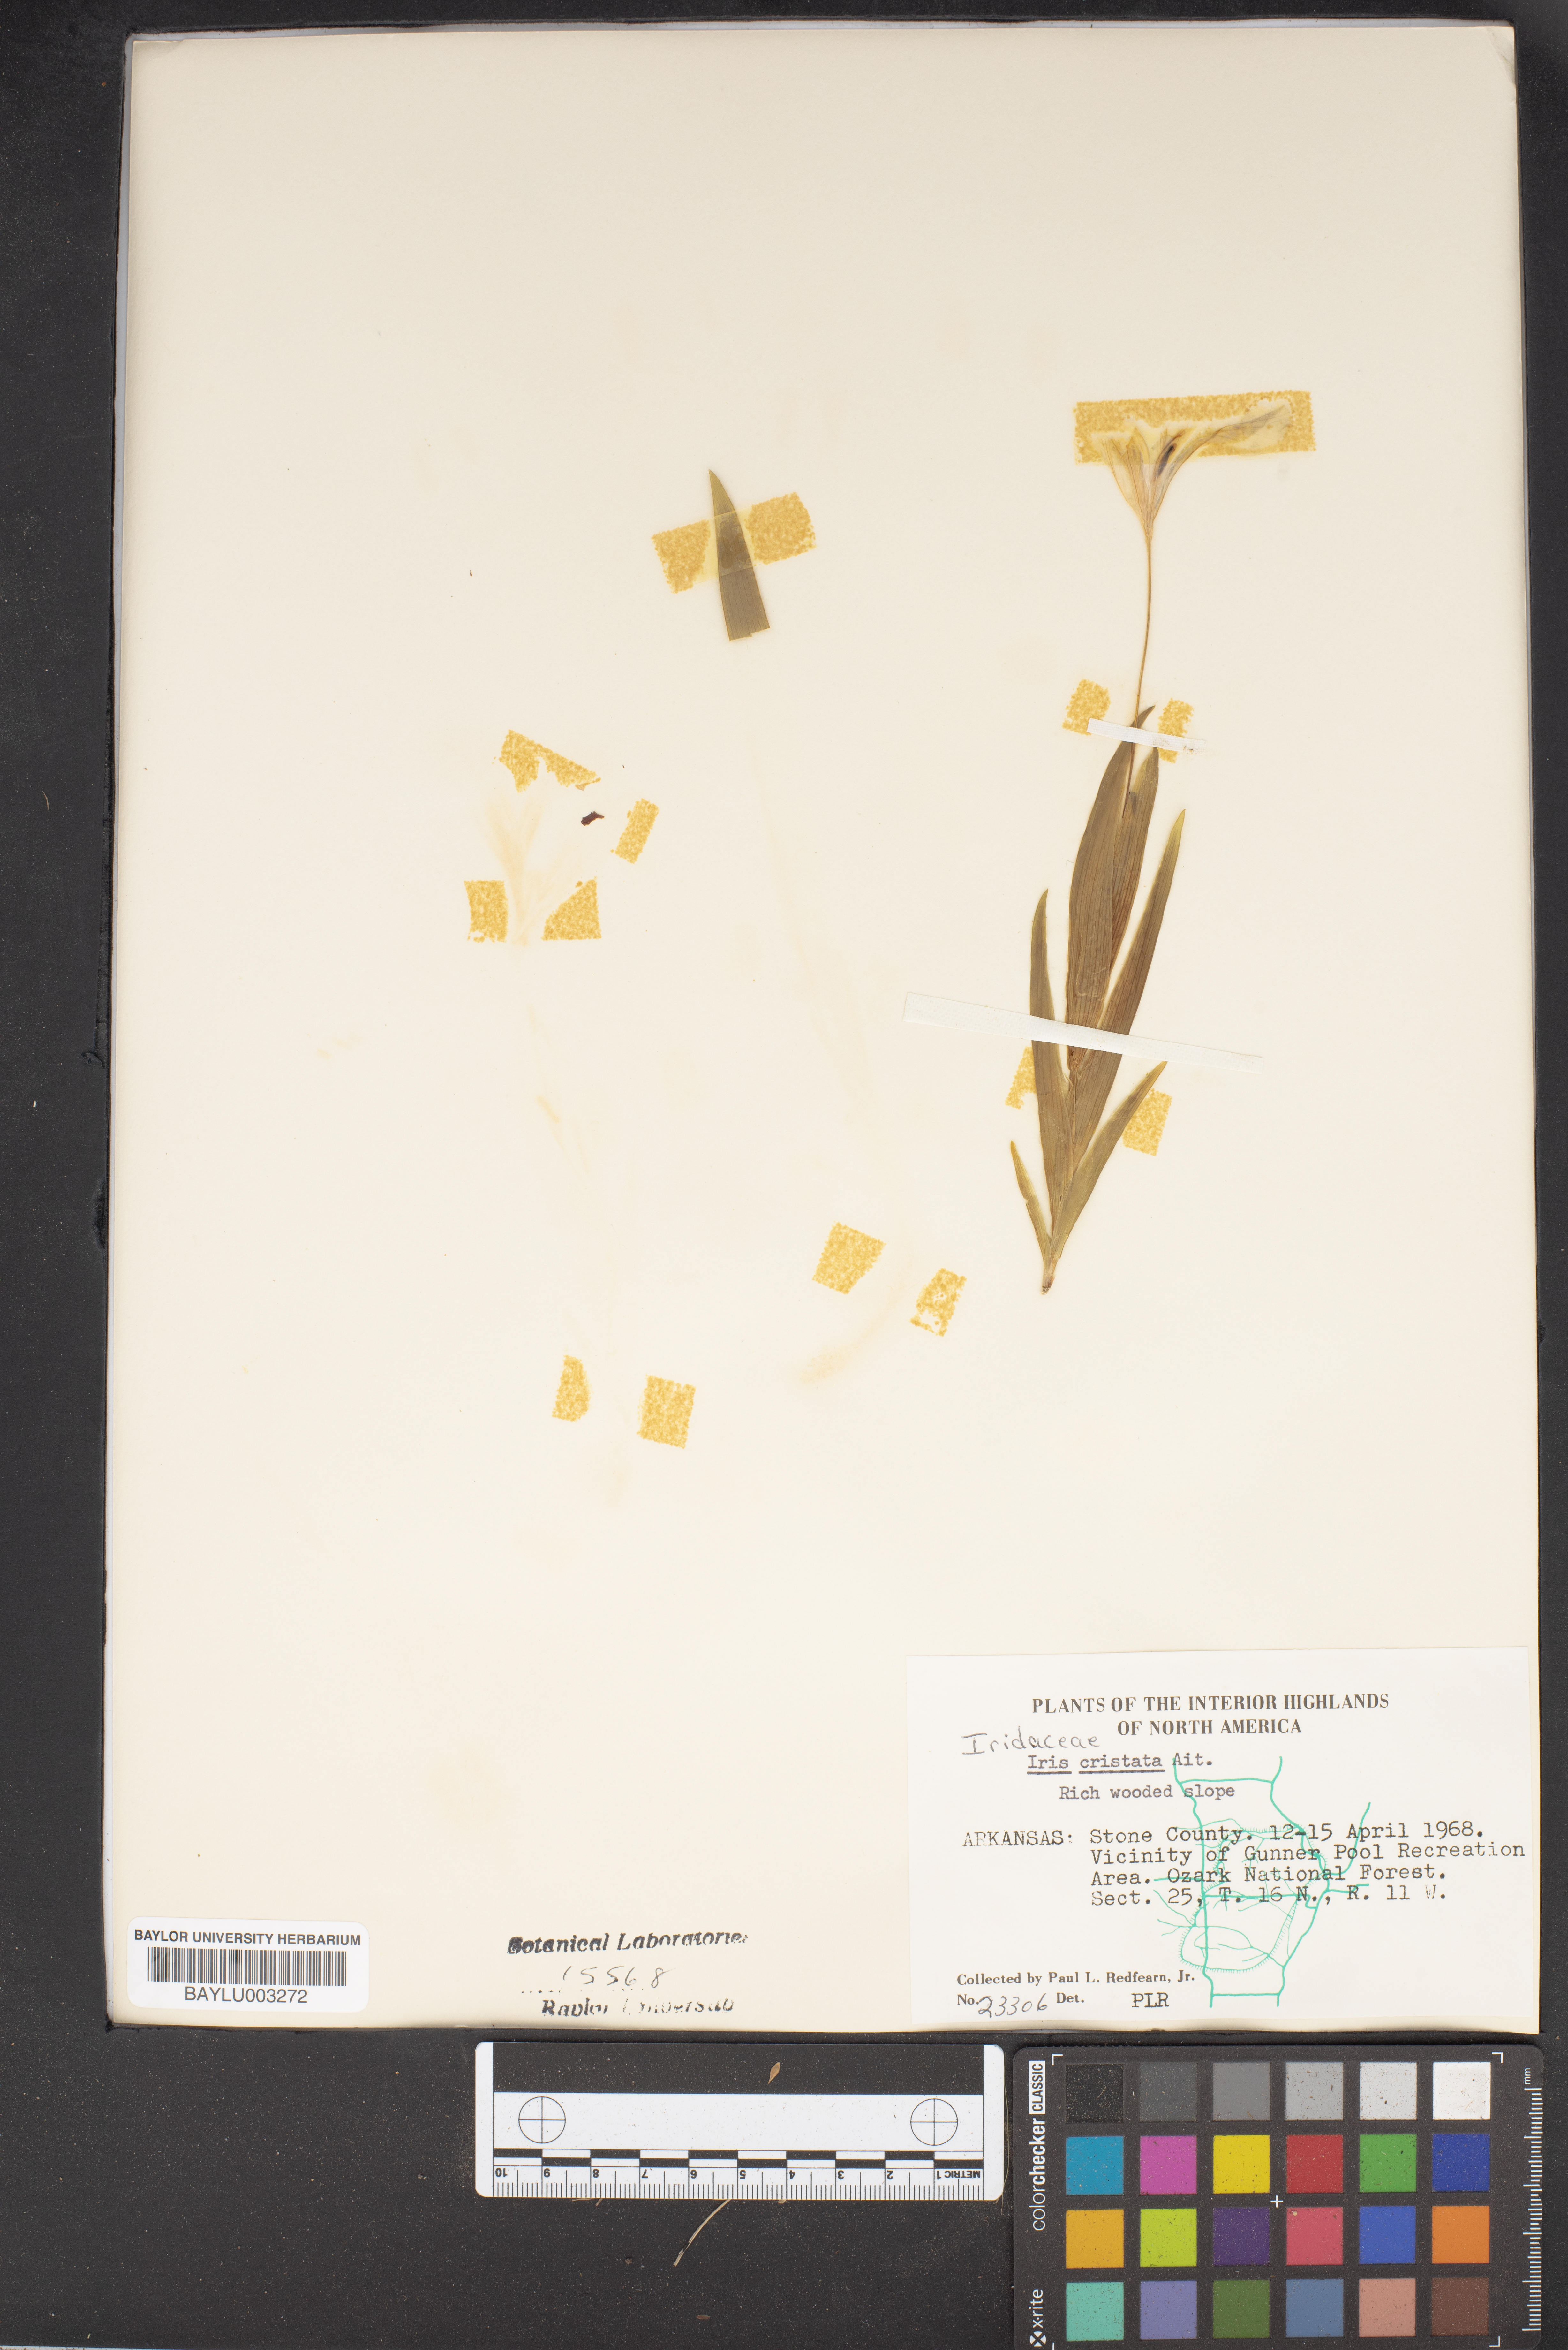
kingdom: Plantae
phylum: Tracheophyta
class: Liliopsida
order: Asparagales
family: Iridaceae
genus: Iris
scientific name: Iris cristata
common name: Crested iris
